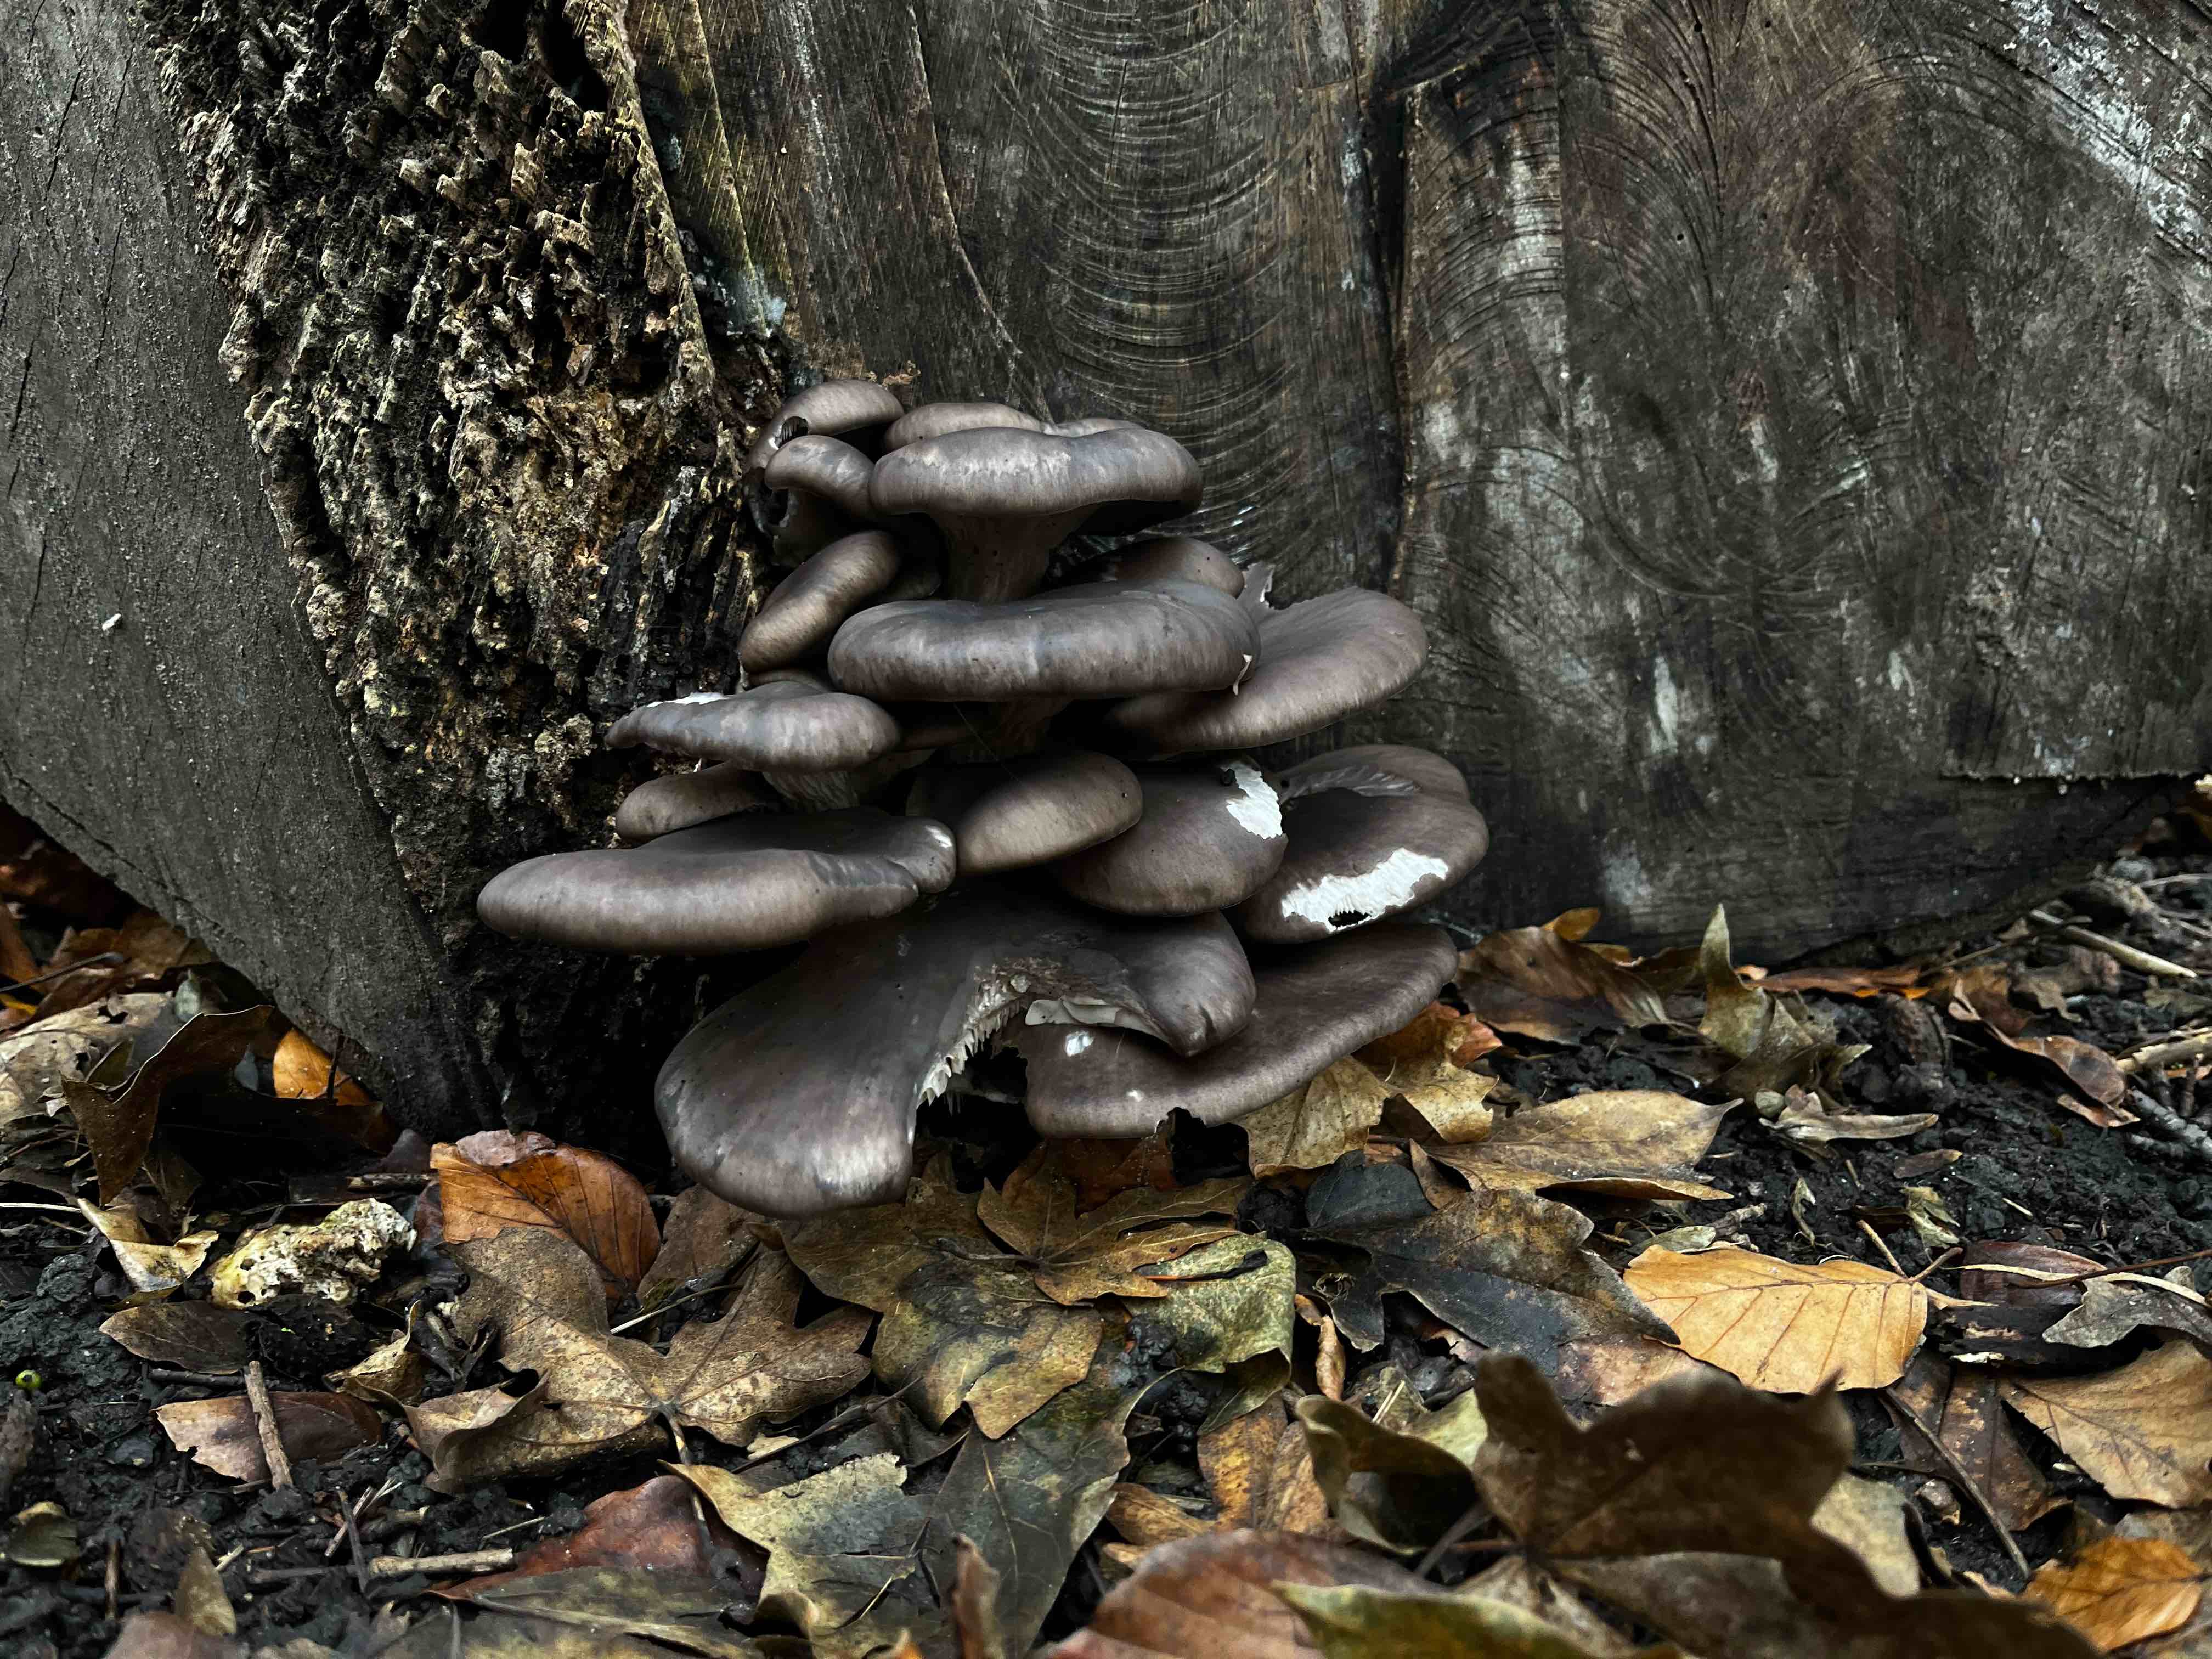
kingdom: Fungi
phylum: Basidiomycota
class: Agaricomycetes
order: Agaricales
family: Pleurotaceae
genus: Pleurotus
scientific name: Pleurotus ostreatus
